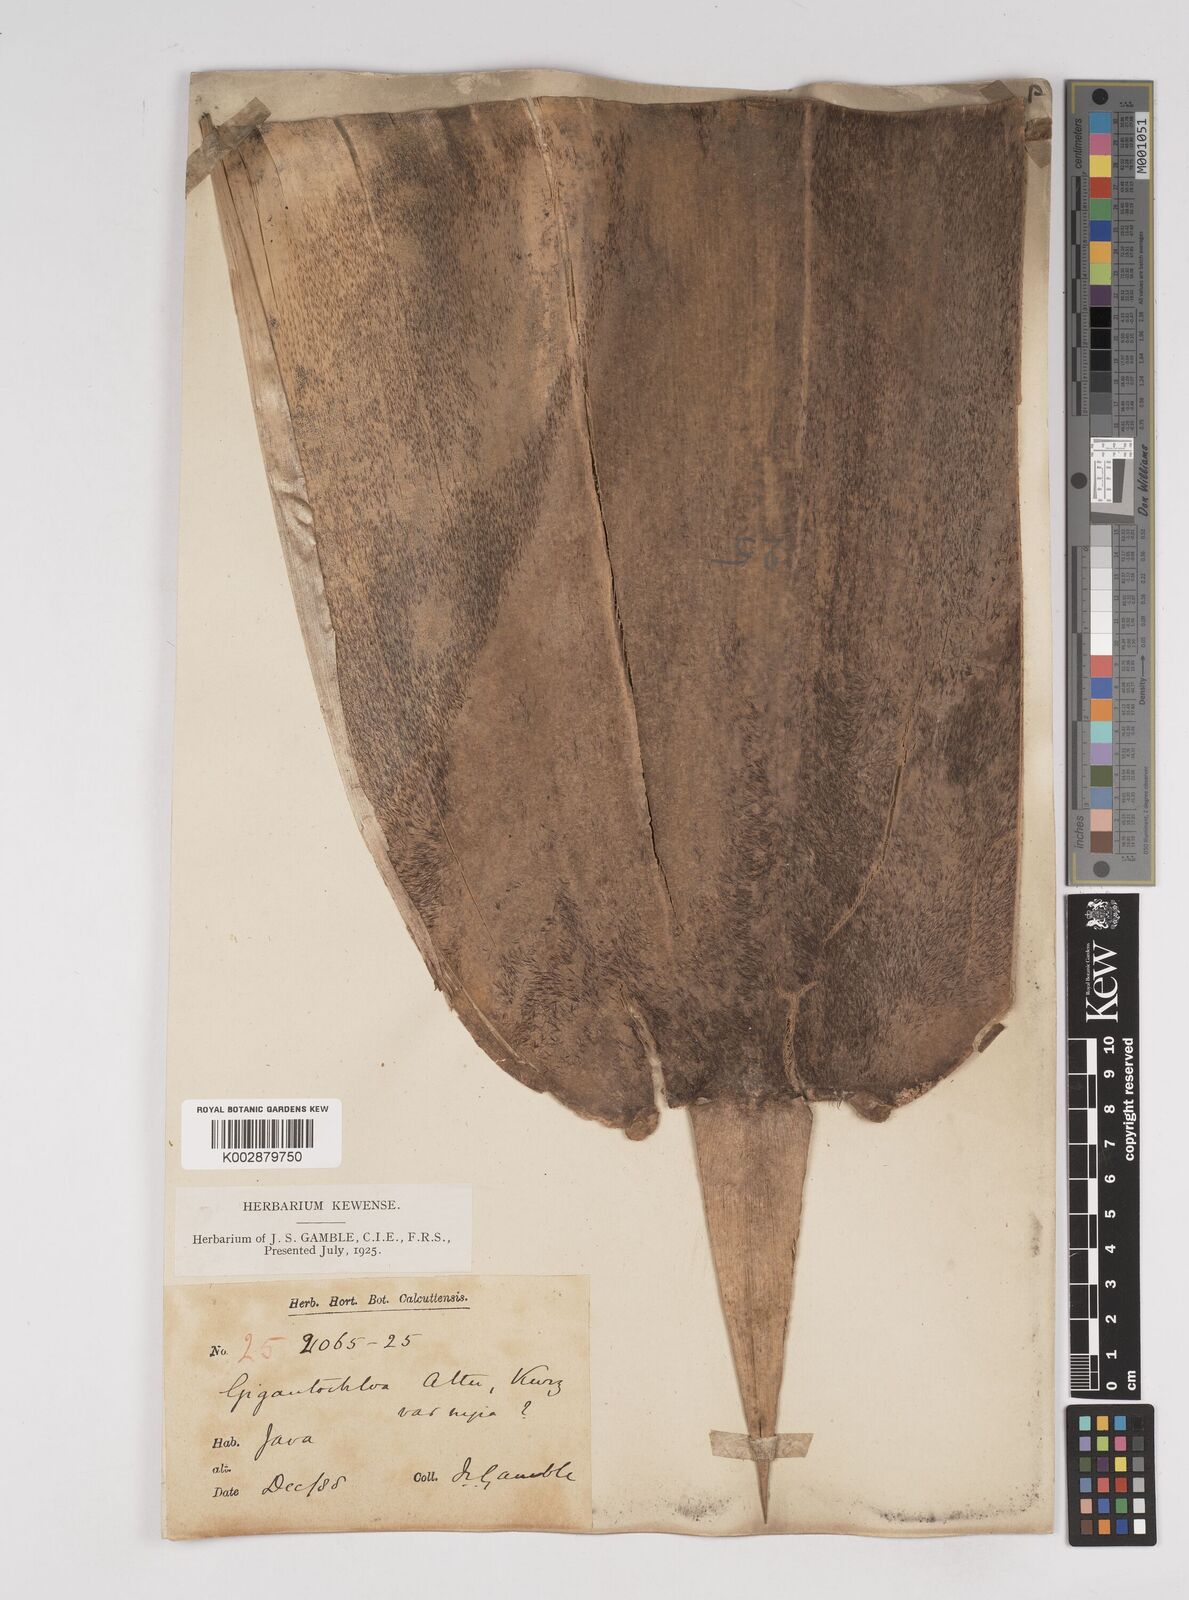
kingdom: Plantae
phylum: Tracheophyta
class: Liliopsida
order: Poales
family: Poaceae
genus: Gigantochloa
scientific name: Gigantochloa atter
